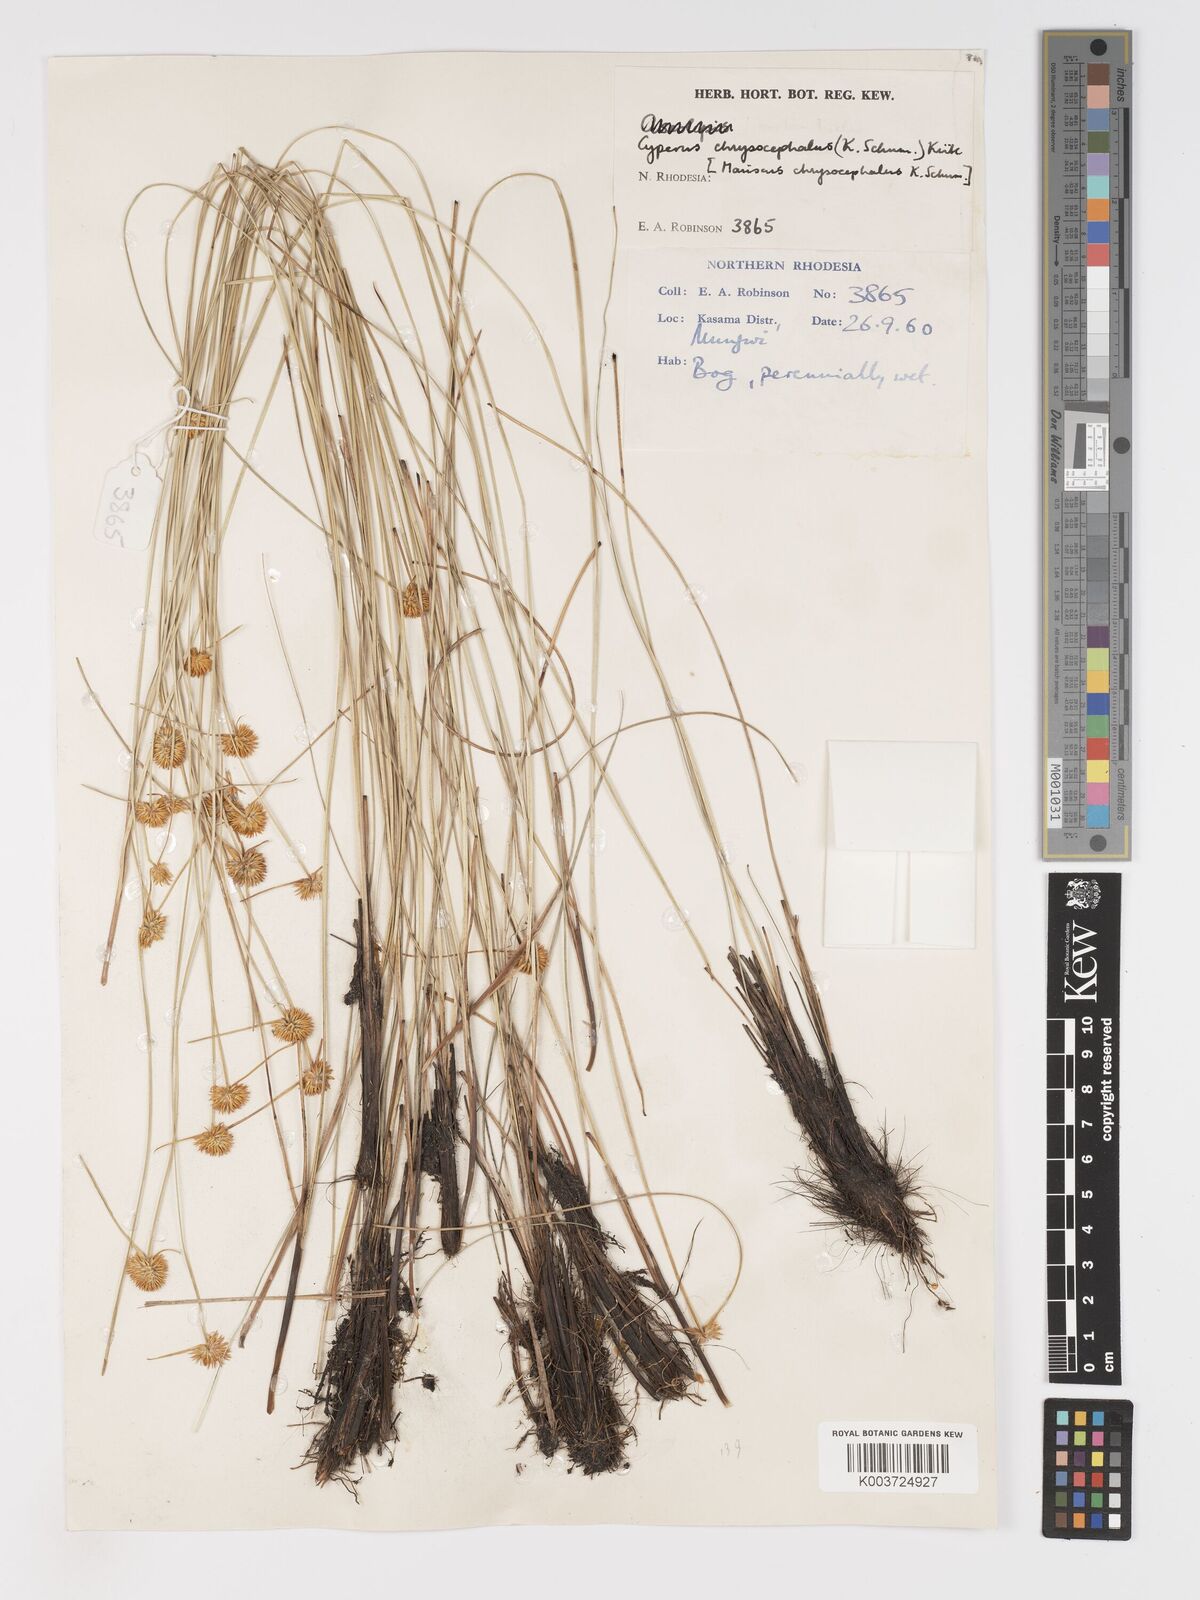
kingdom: Plantae
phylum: Tracheophyta
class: Liliopsida
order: Poales
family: Cyperaceae
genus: Cyperus
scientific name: Cyperus chrysocephalus
